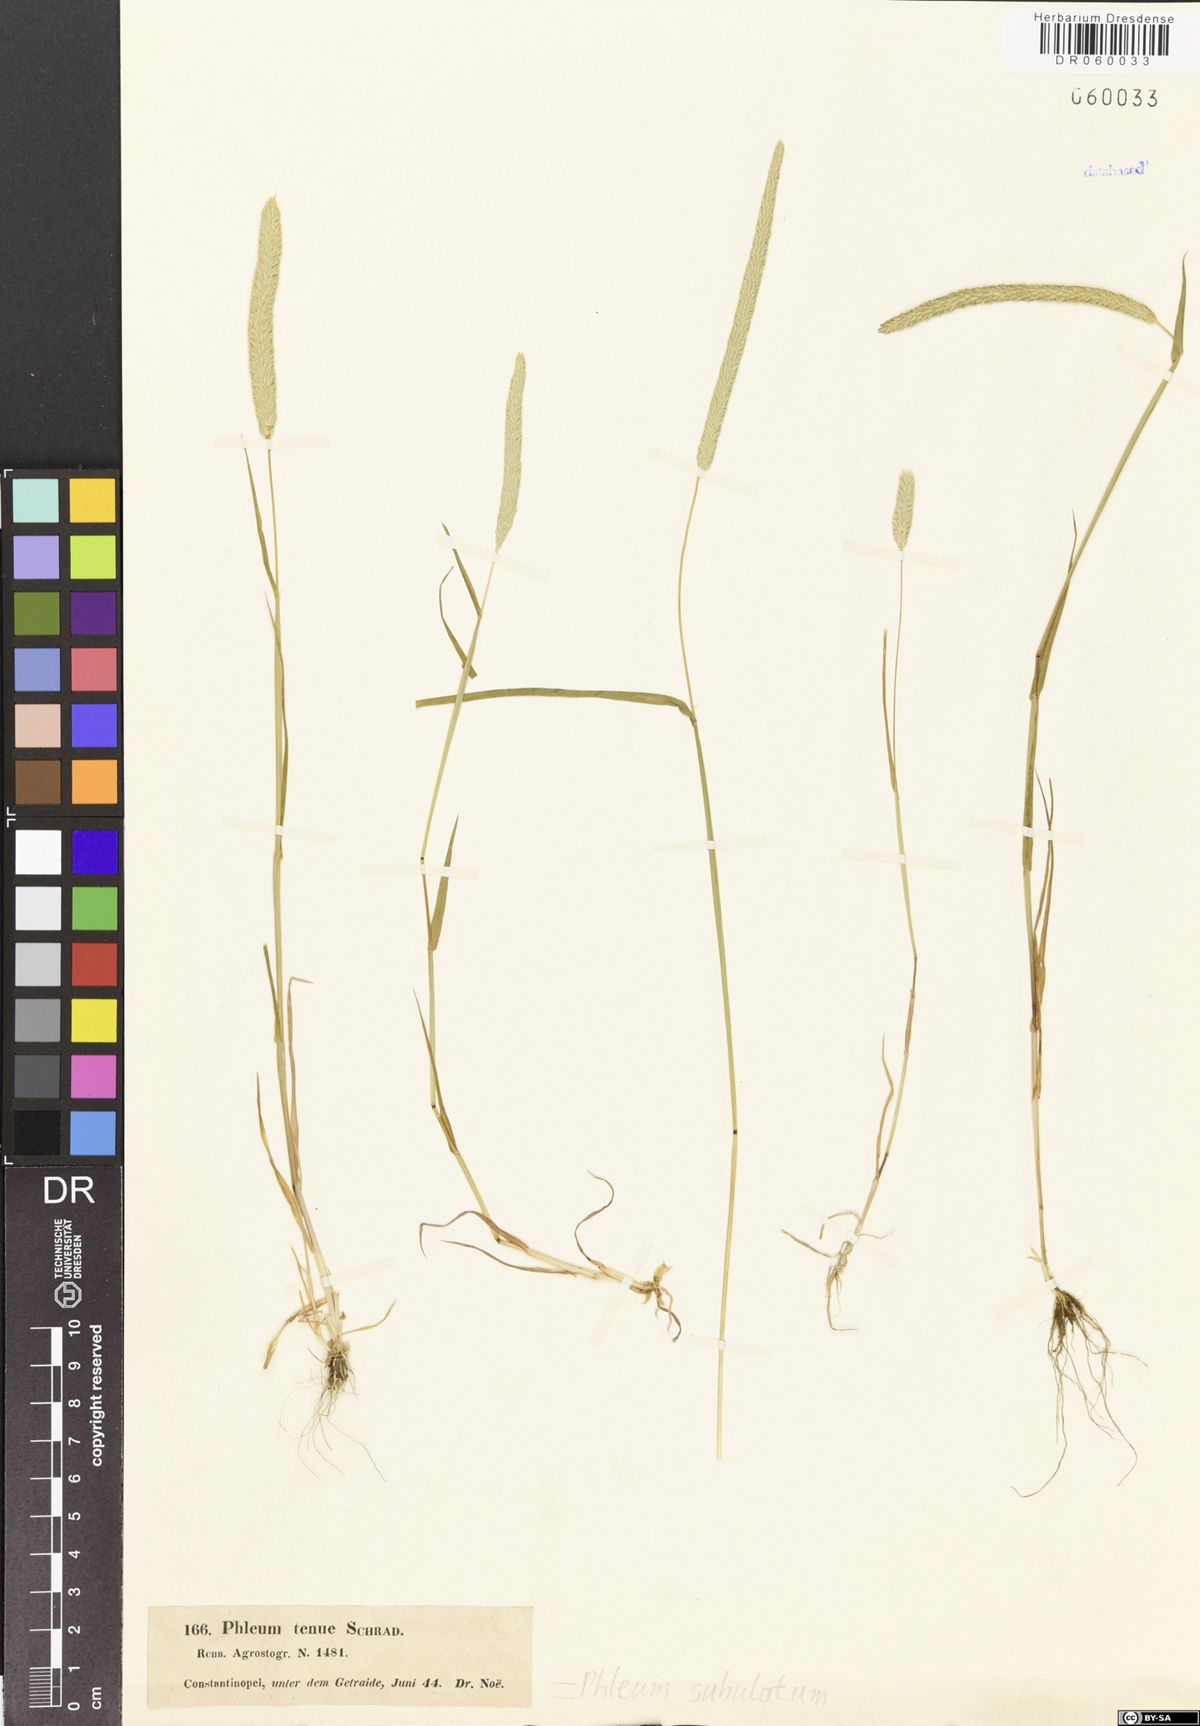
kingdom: Plantae
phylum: Tracheophyta
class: Liliopsida
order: Poales
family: Poaceae
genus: Phleum
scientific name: Phleum subulatum
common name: Italian timothy
